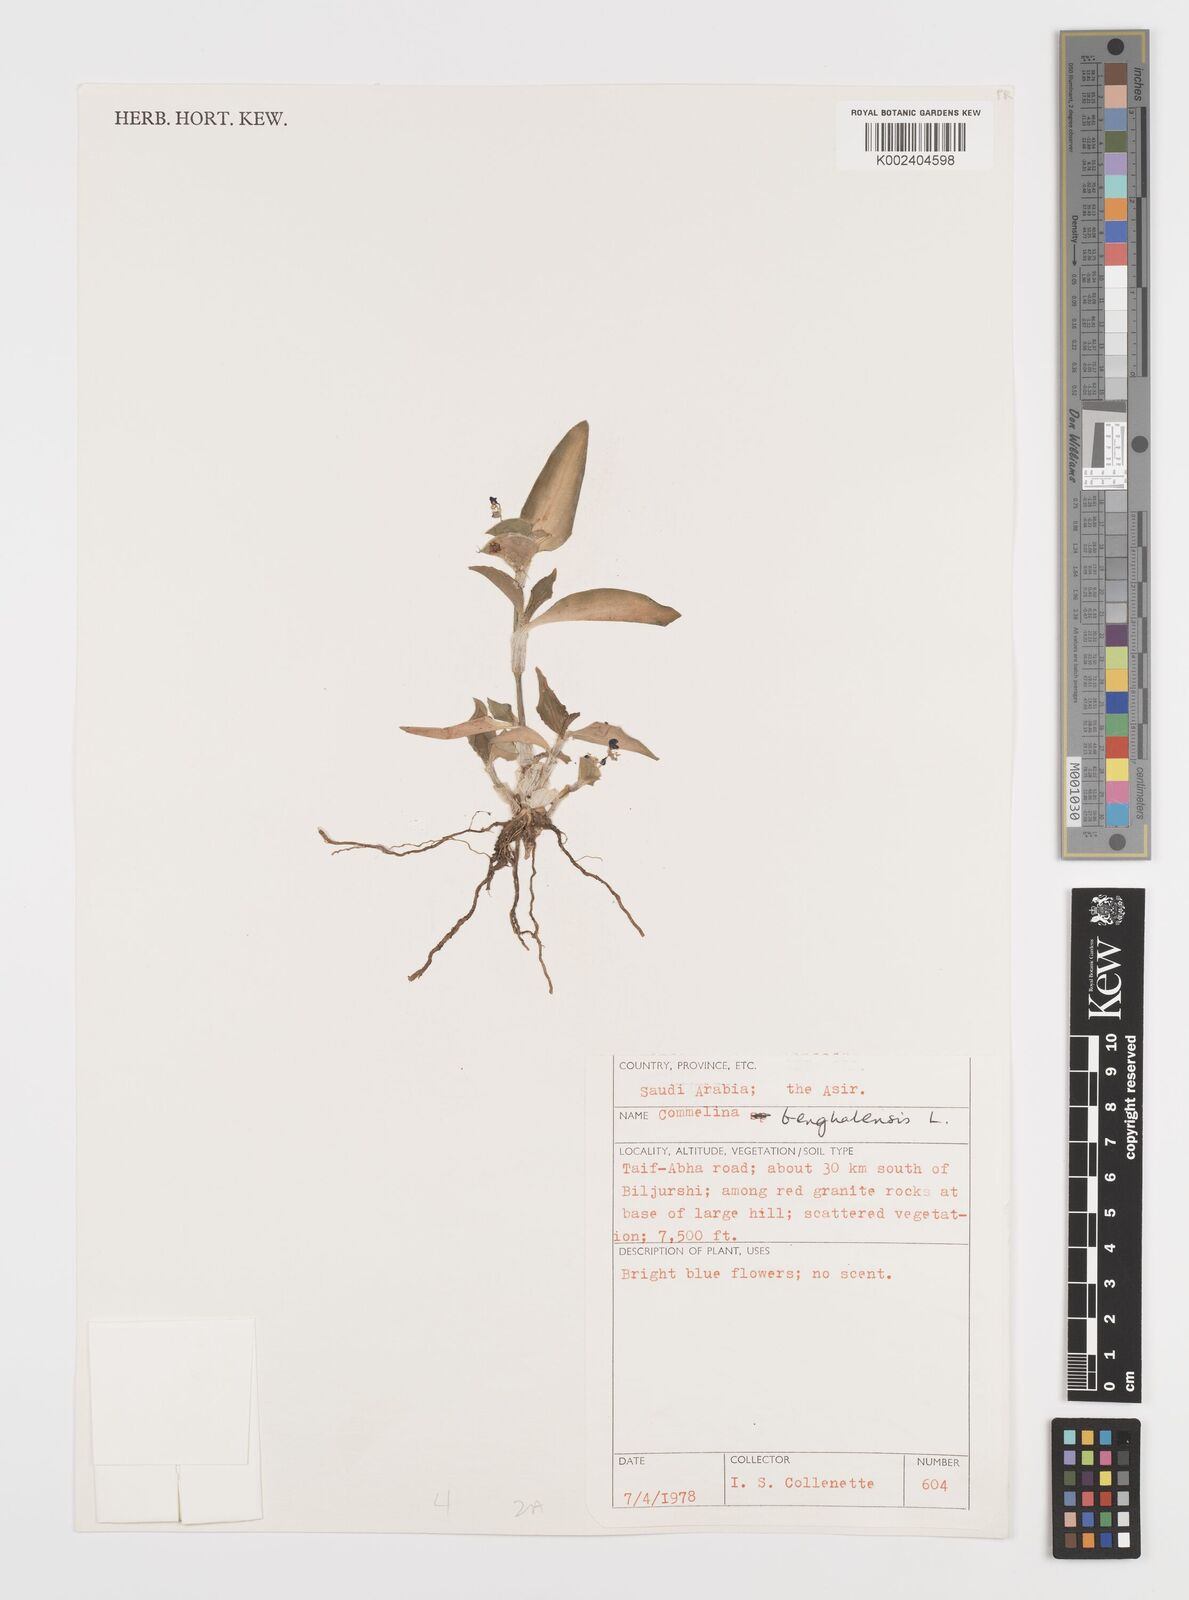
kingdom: Plantae
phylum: Tracheophyta
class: Liliopsida
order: Commelinales
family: Commelinaceae
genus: Commelina
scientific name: Commelina benghalensis
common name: Jio
